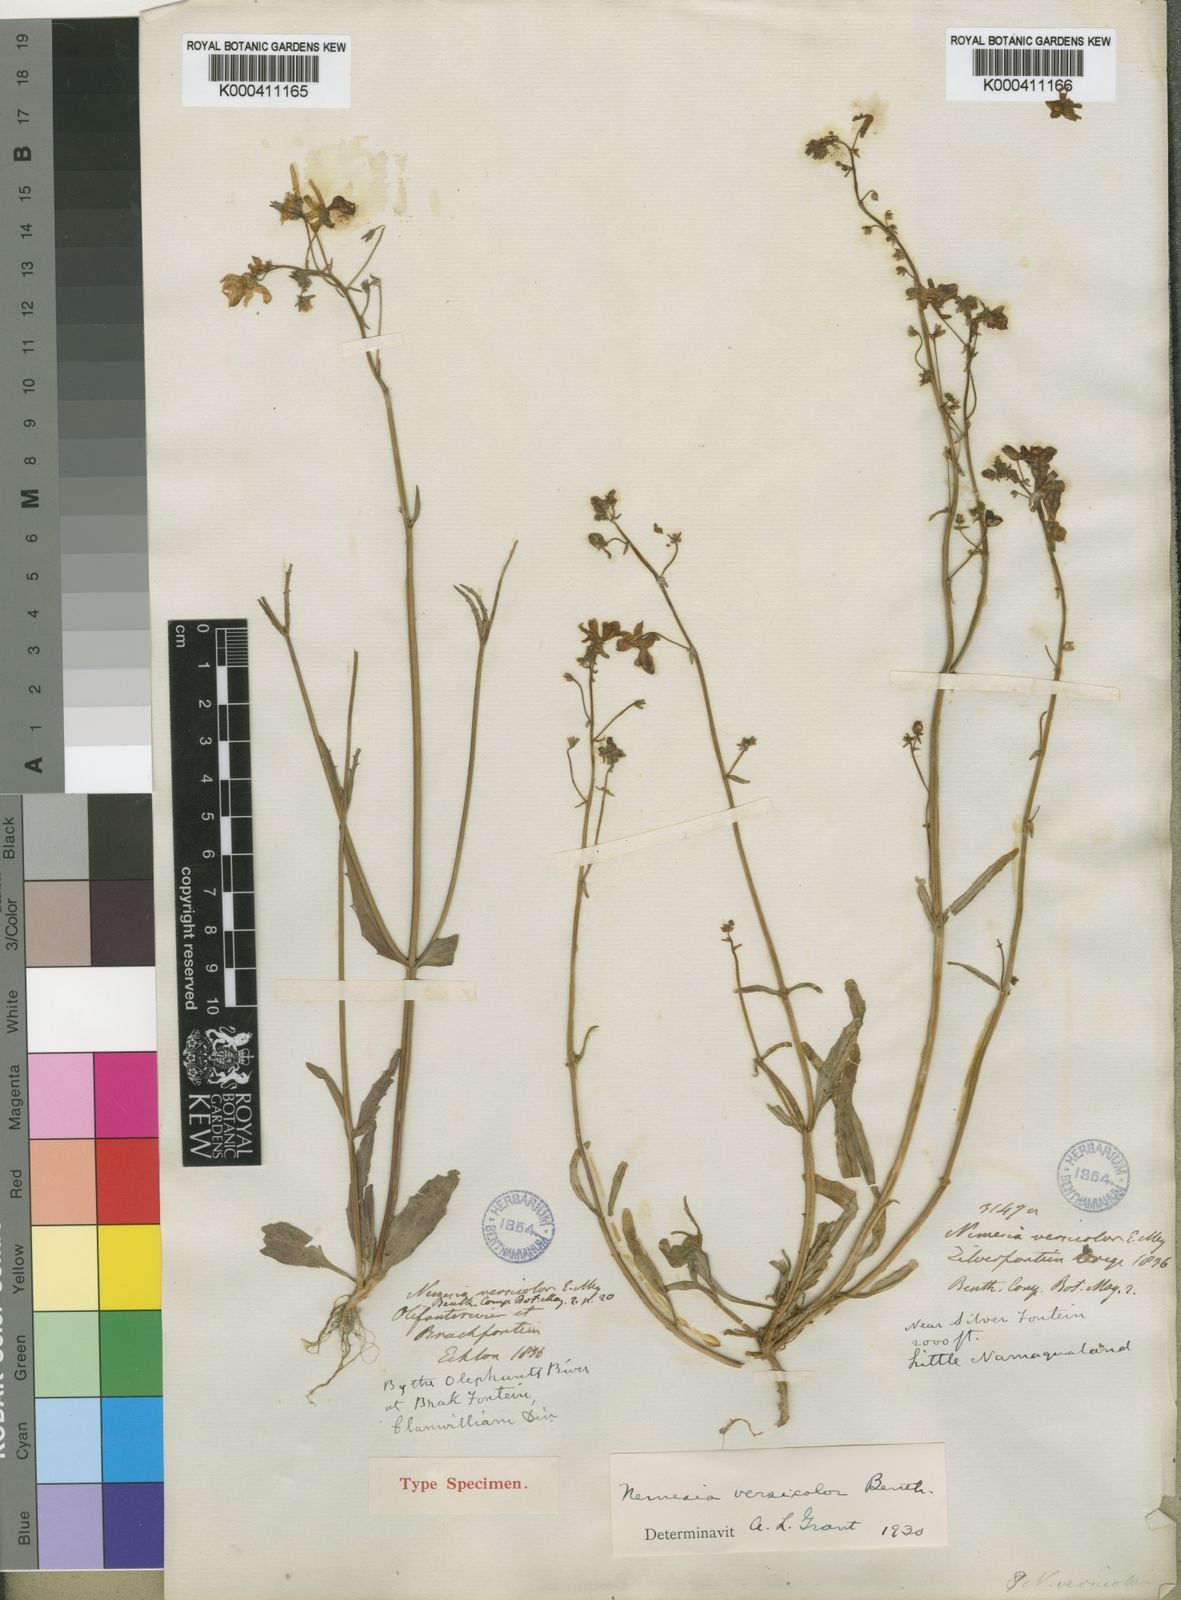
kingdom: Plantae
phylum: Tracheophyta
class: Magnoliopsida
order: Lamiales
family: Scrophulariaceae
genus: Nemesia
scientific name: Nemesia versicolor
